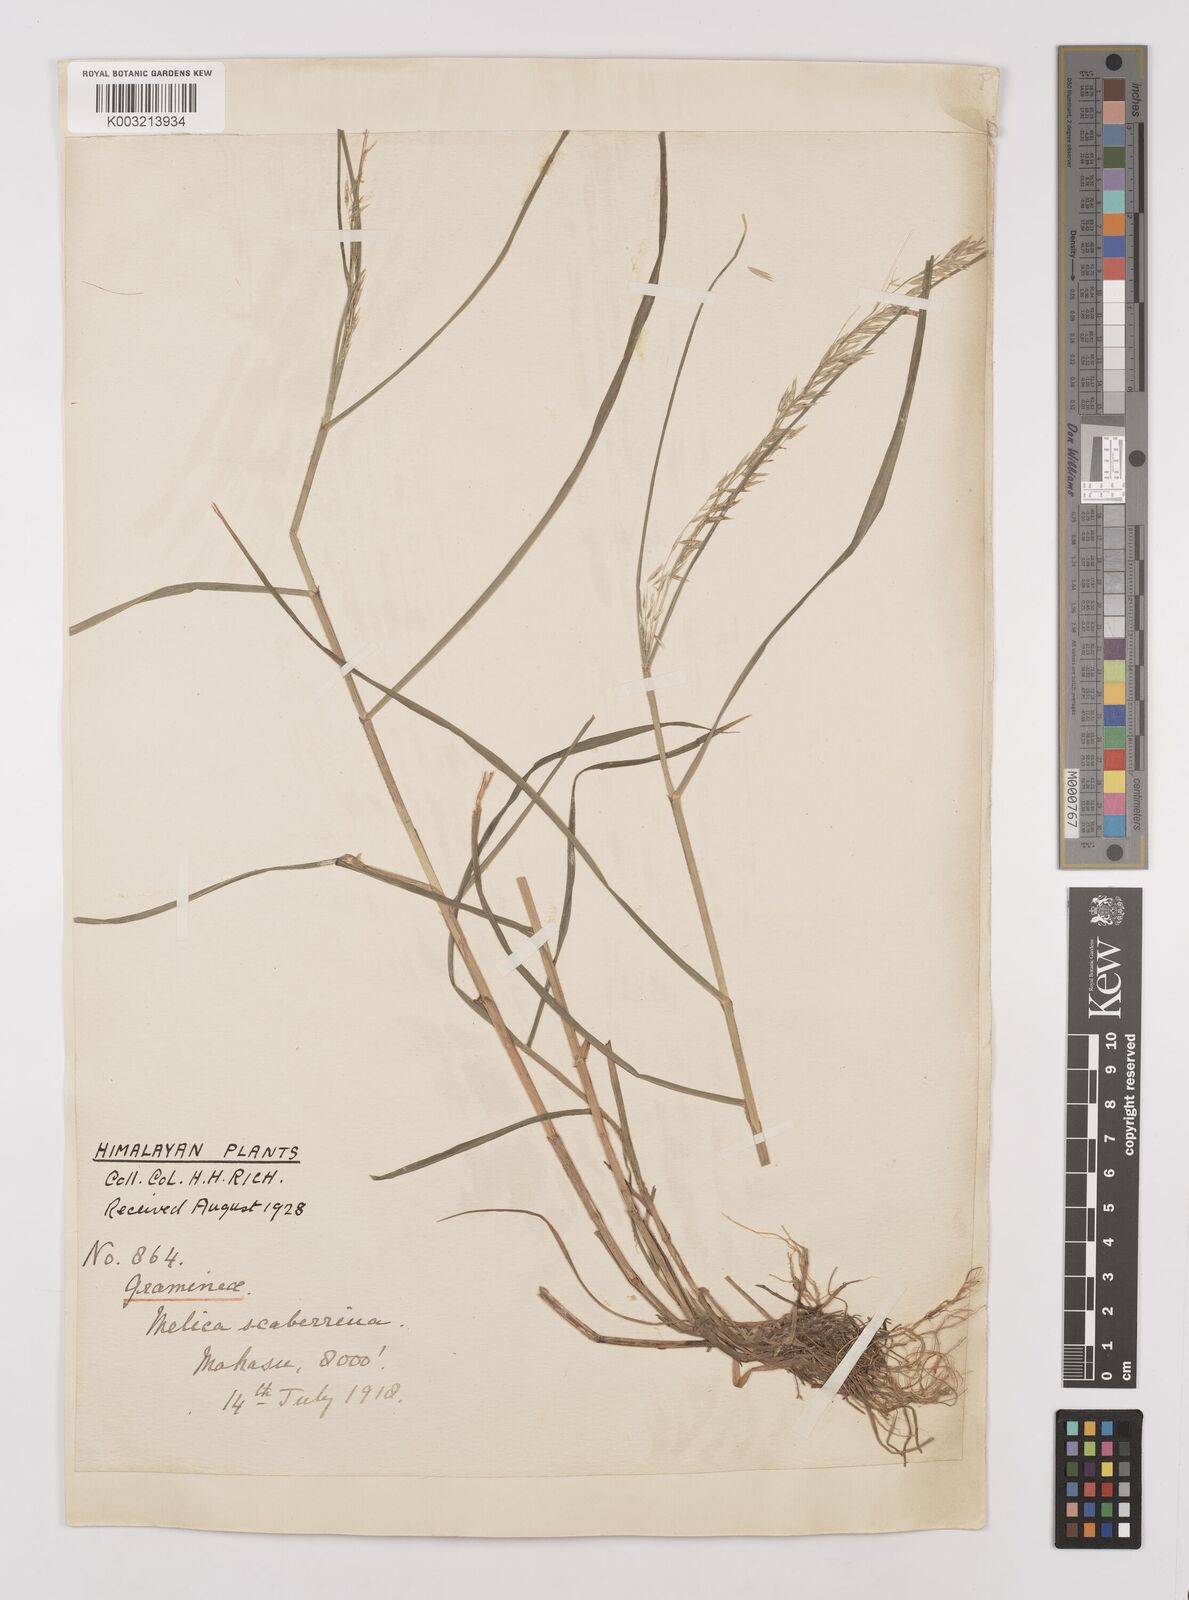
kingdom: Plantae
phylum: Tracheophyta
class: Liliopsida
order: Poales
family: Poaceae
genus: Melica
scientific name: Melica scaberrima
